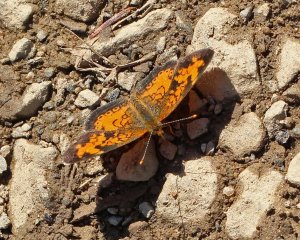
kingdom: Animalia
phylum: Arthropoda
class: Insecta
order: Lepidoptera
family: Nymphalidae
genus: Phyciodes
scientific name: Phyciodes tharos
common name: Northern Crescent
